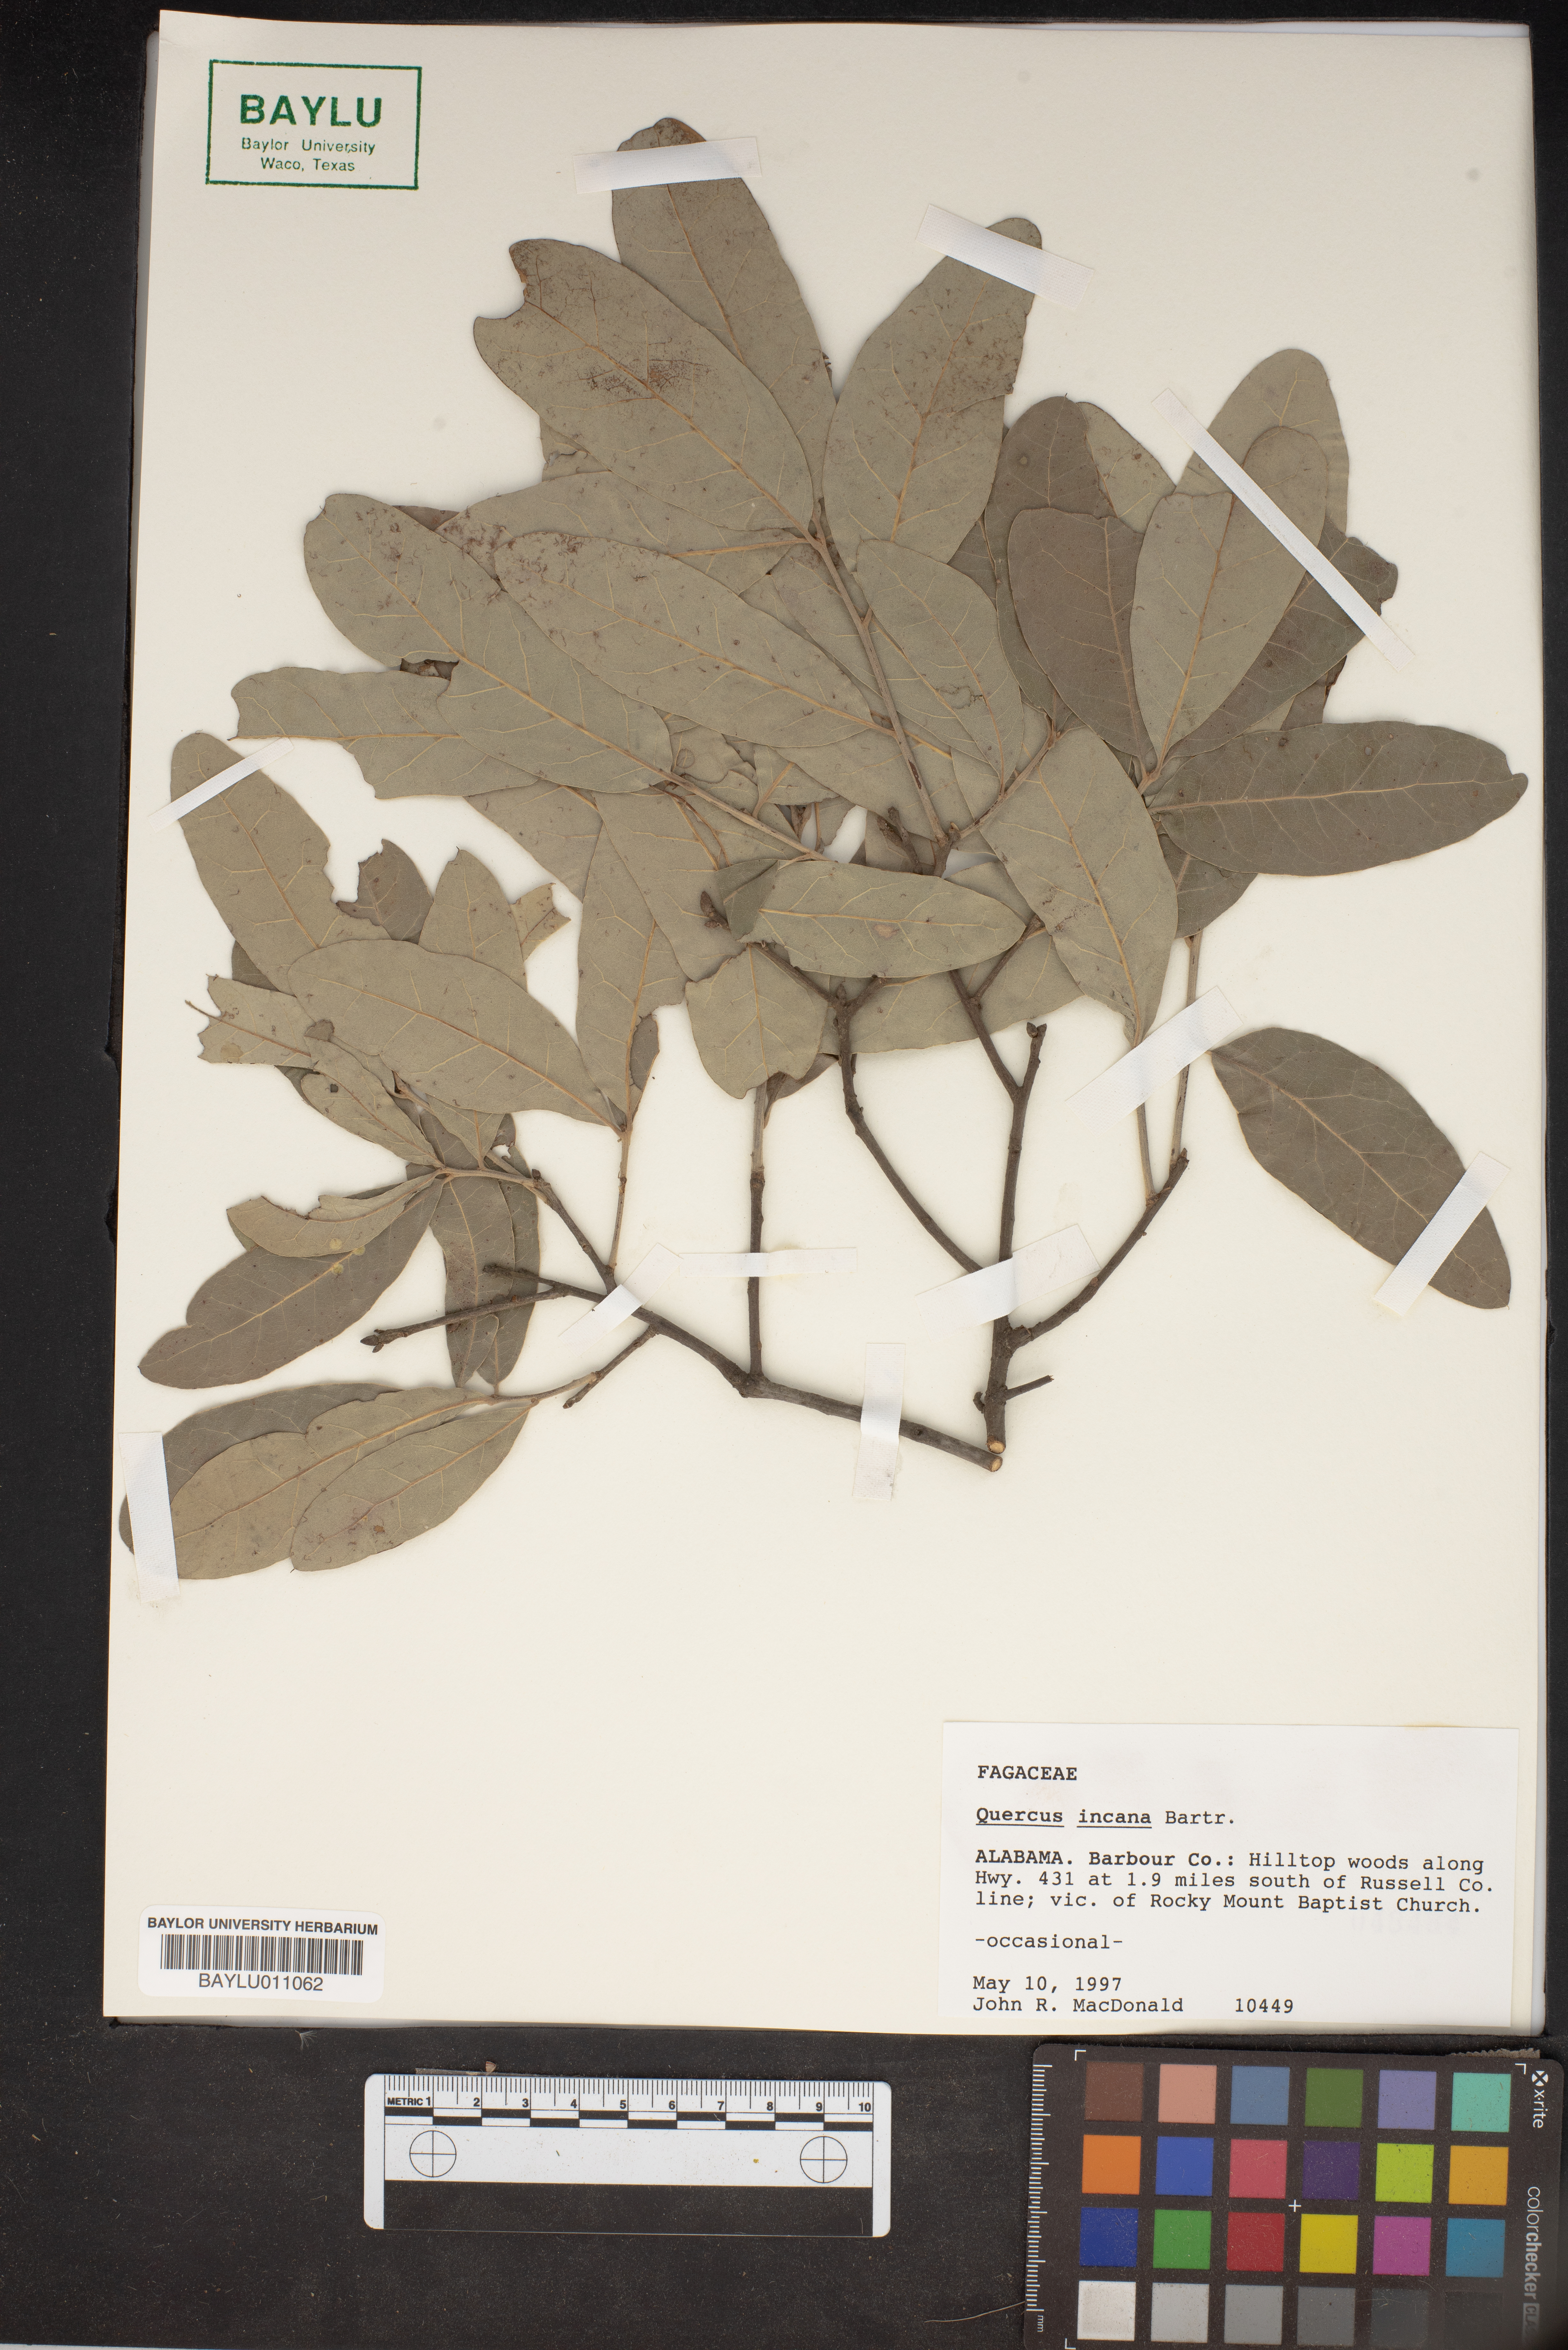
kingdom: Plantae
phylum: Tracheophyta
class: Magnoliopsida
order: Fagales
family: Fagaceae
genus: Quercus
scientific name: Quercus incana
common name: Bluejack oak
